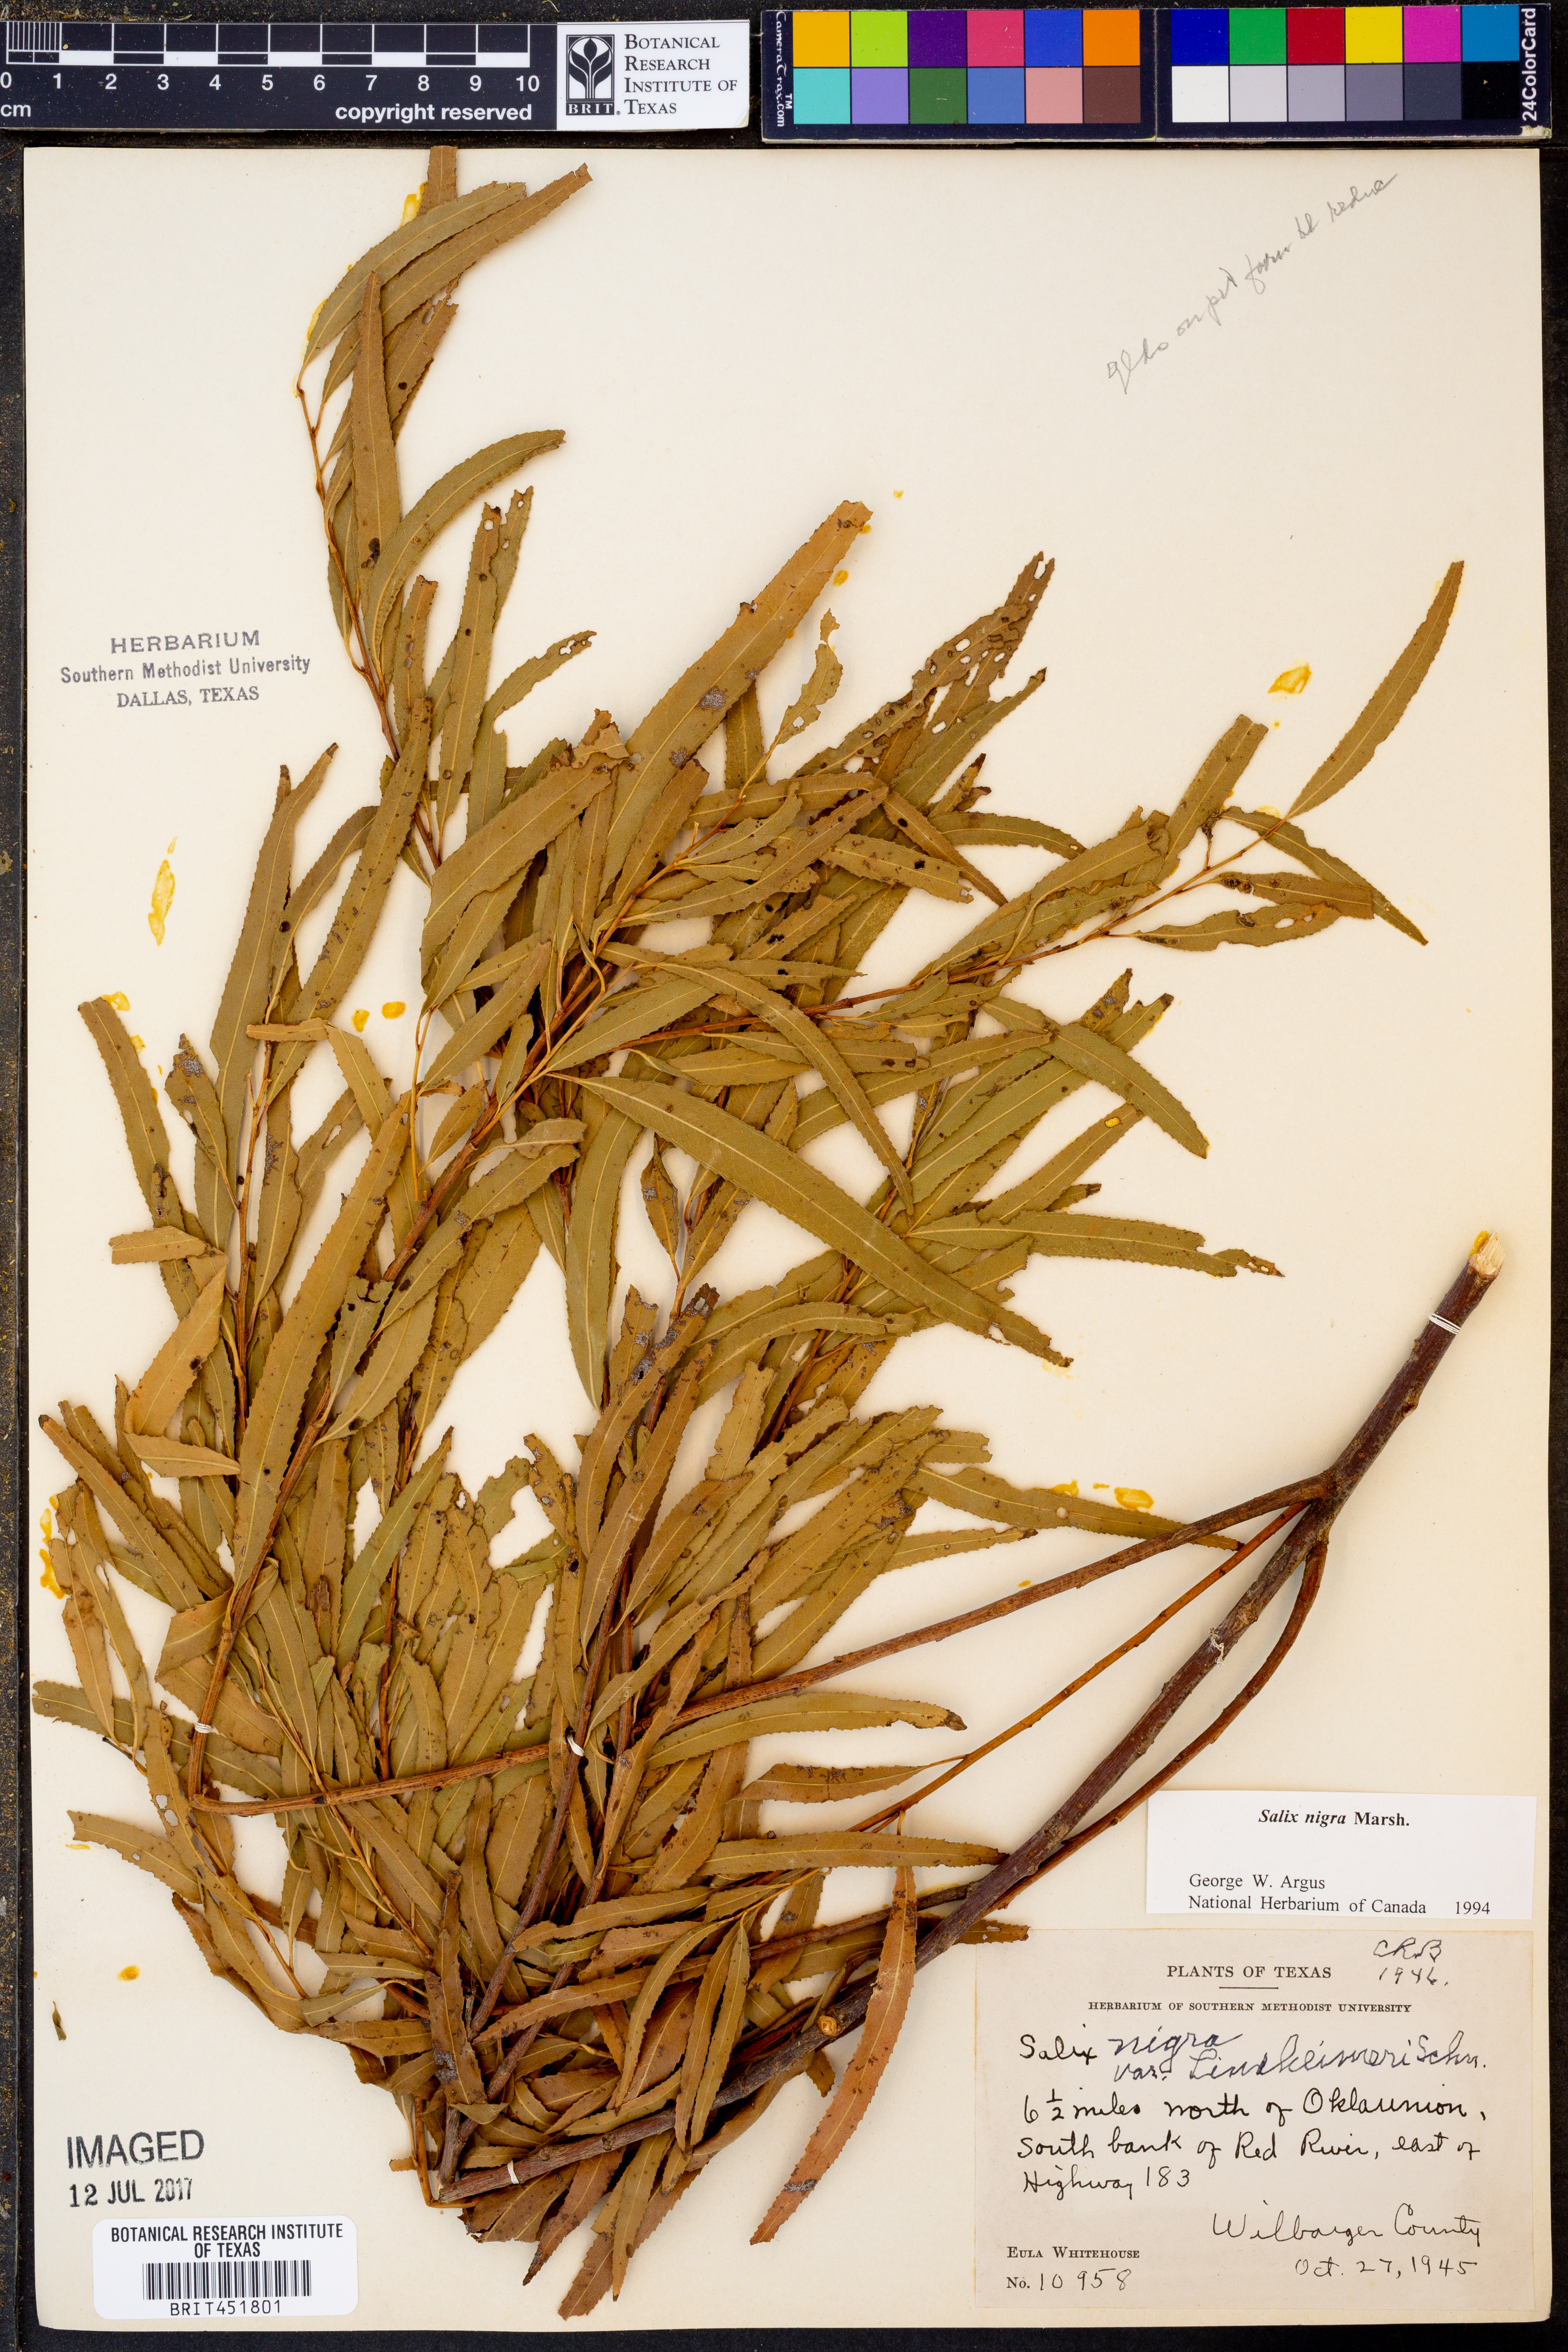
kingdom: Plantae
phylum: Tracheophyta
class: Magnoliopsida
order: Malpighiales
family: Salicaceae
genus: Salix
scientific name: Salix nigra
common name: Black willow
